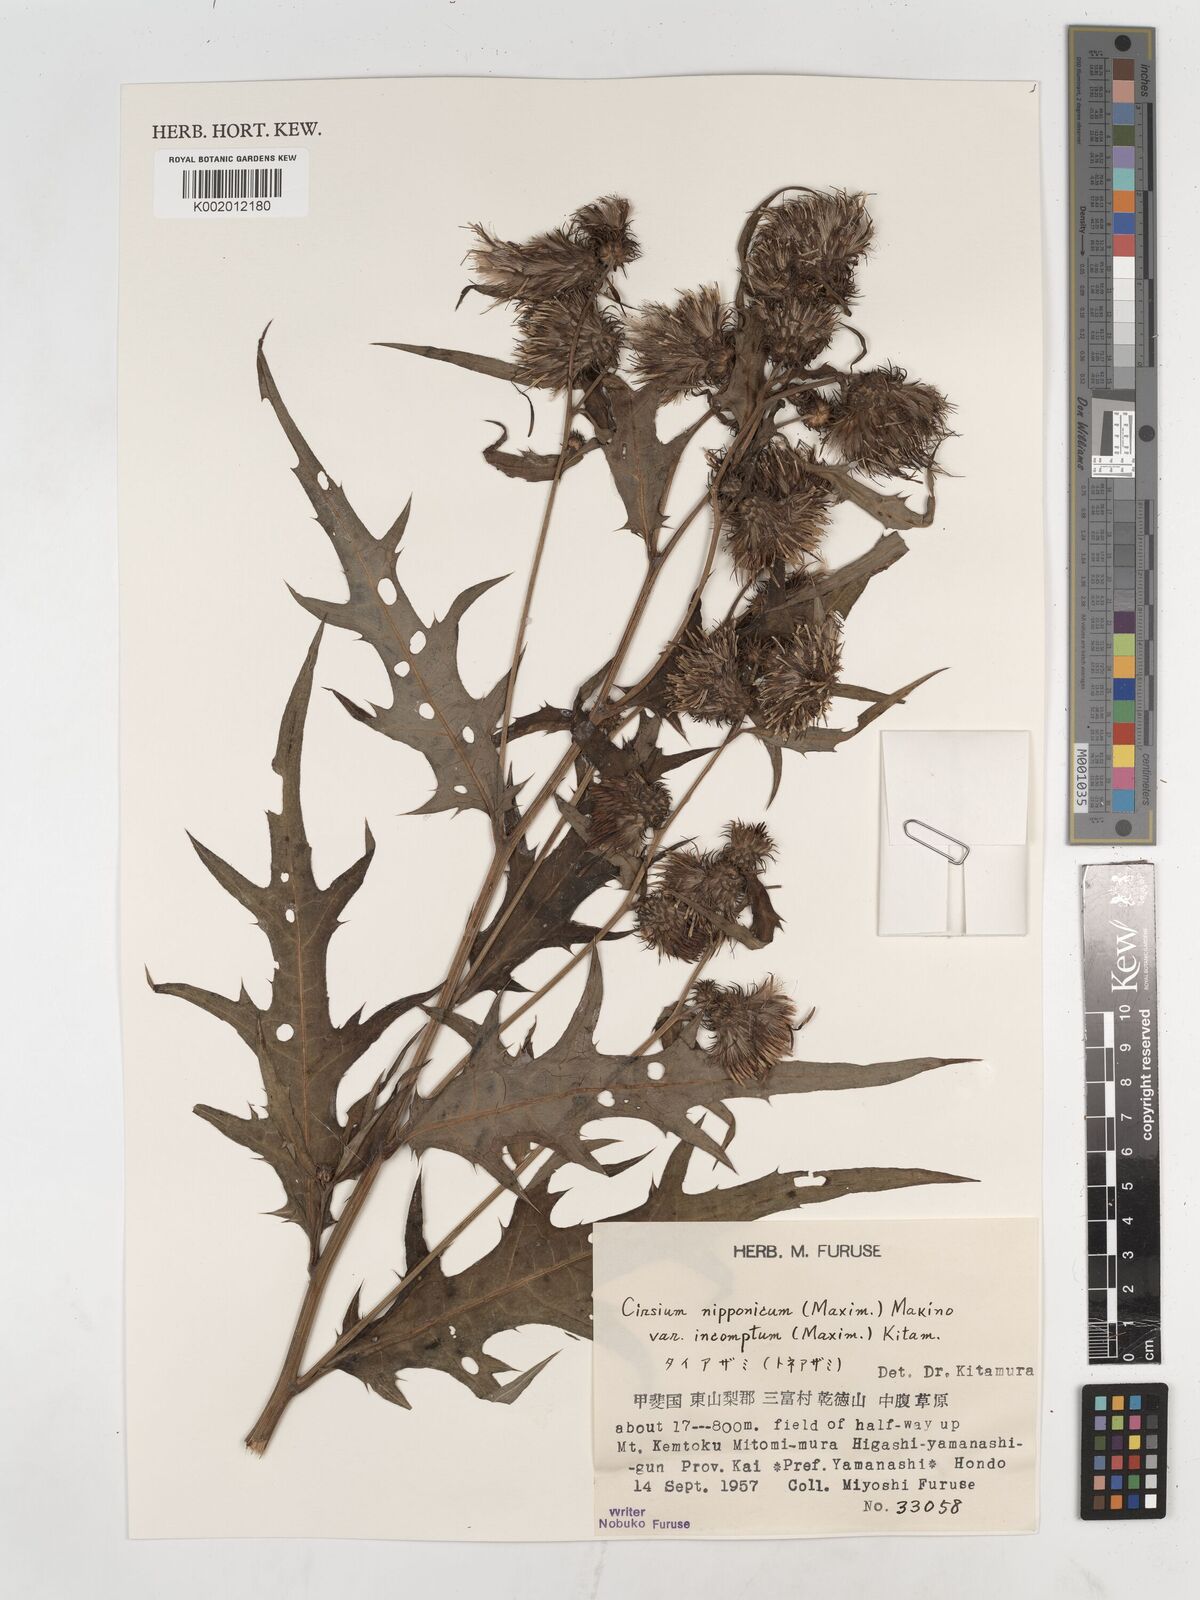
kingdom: Plantae
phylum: Tracheophyta
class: Magnoliopsida
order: Asterales
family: Asteraceae
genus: Cirsium
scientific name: Cirsium nipponicum
